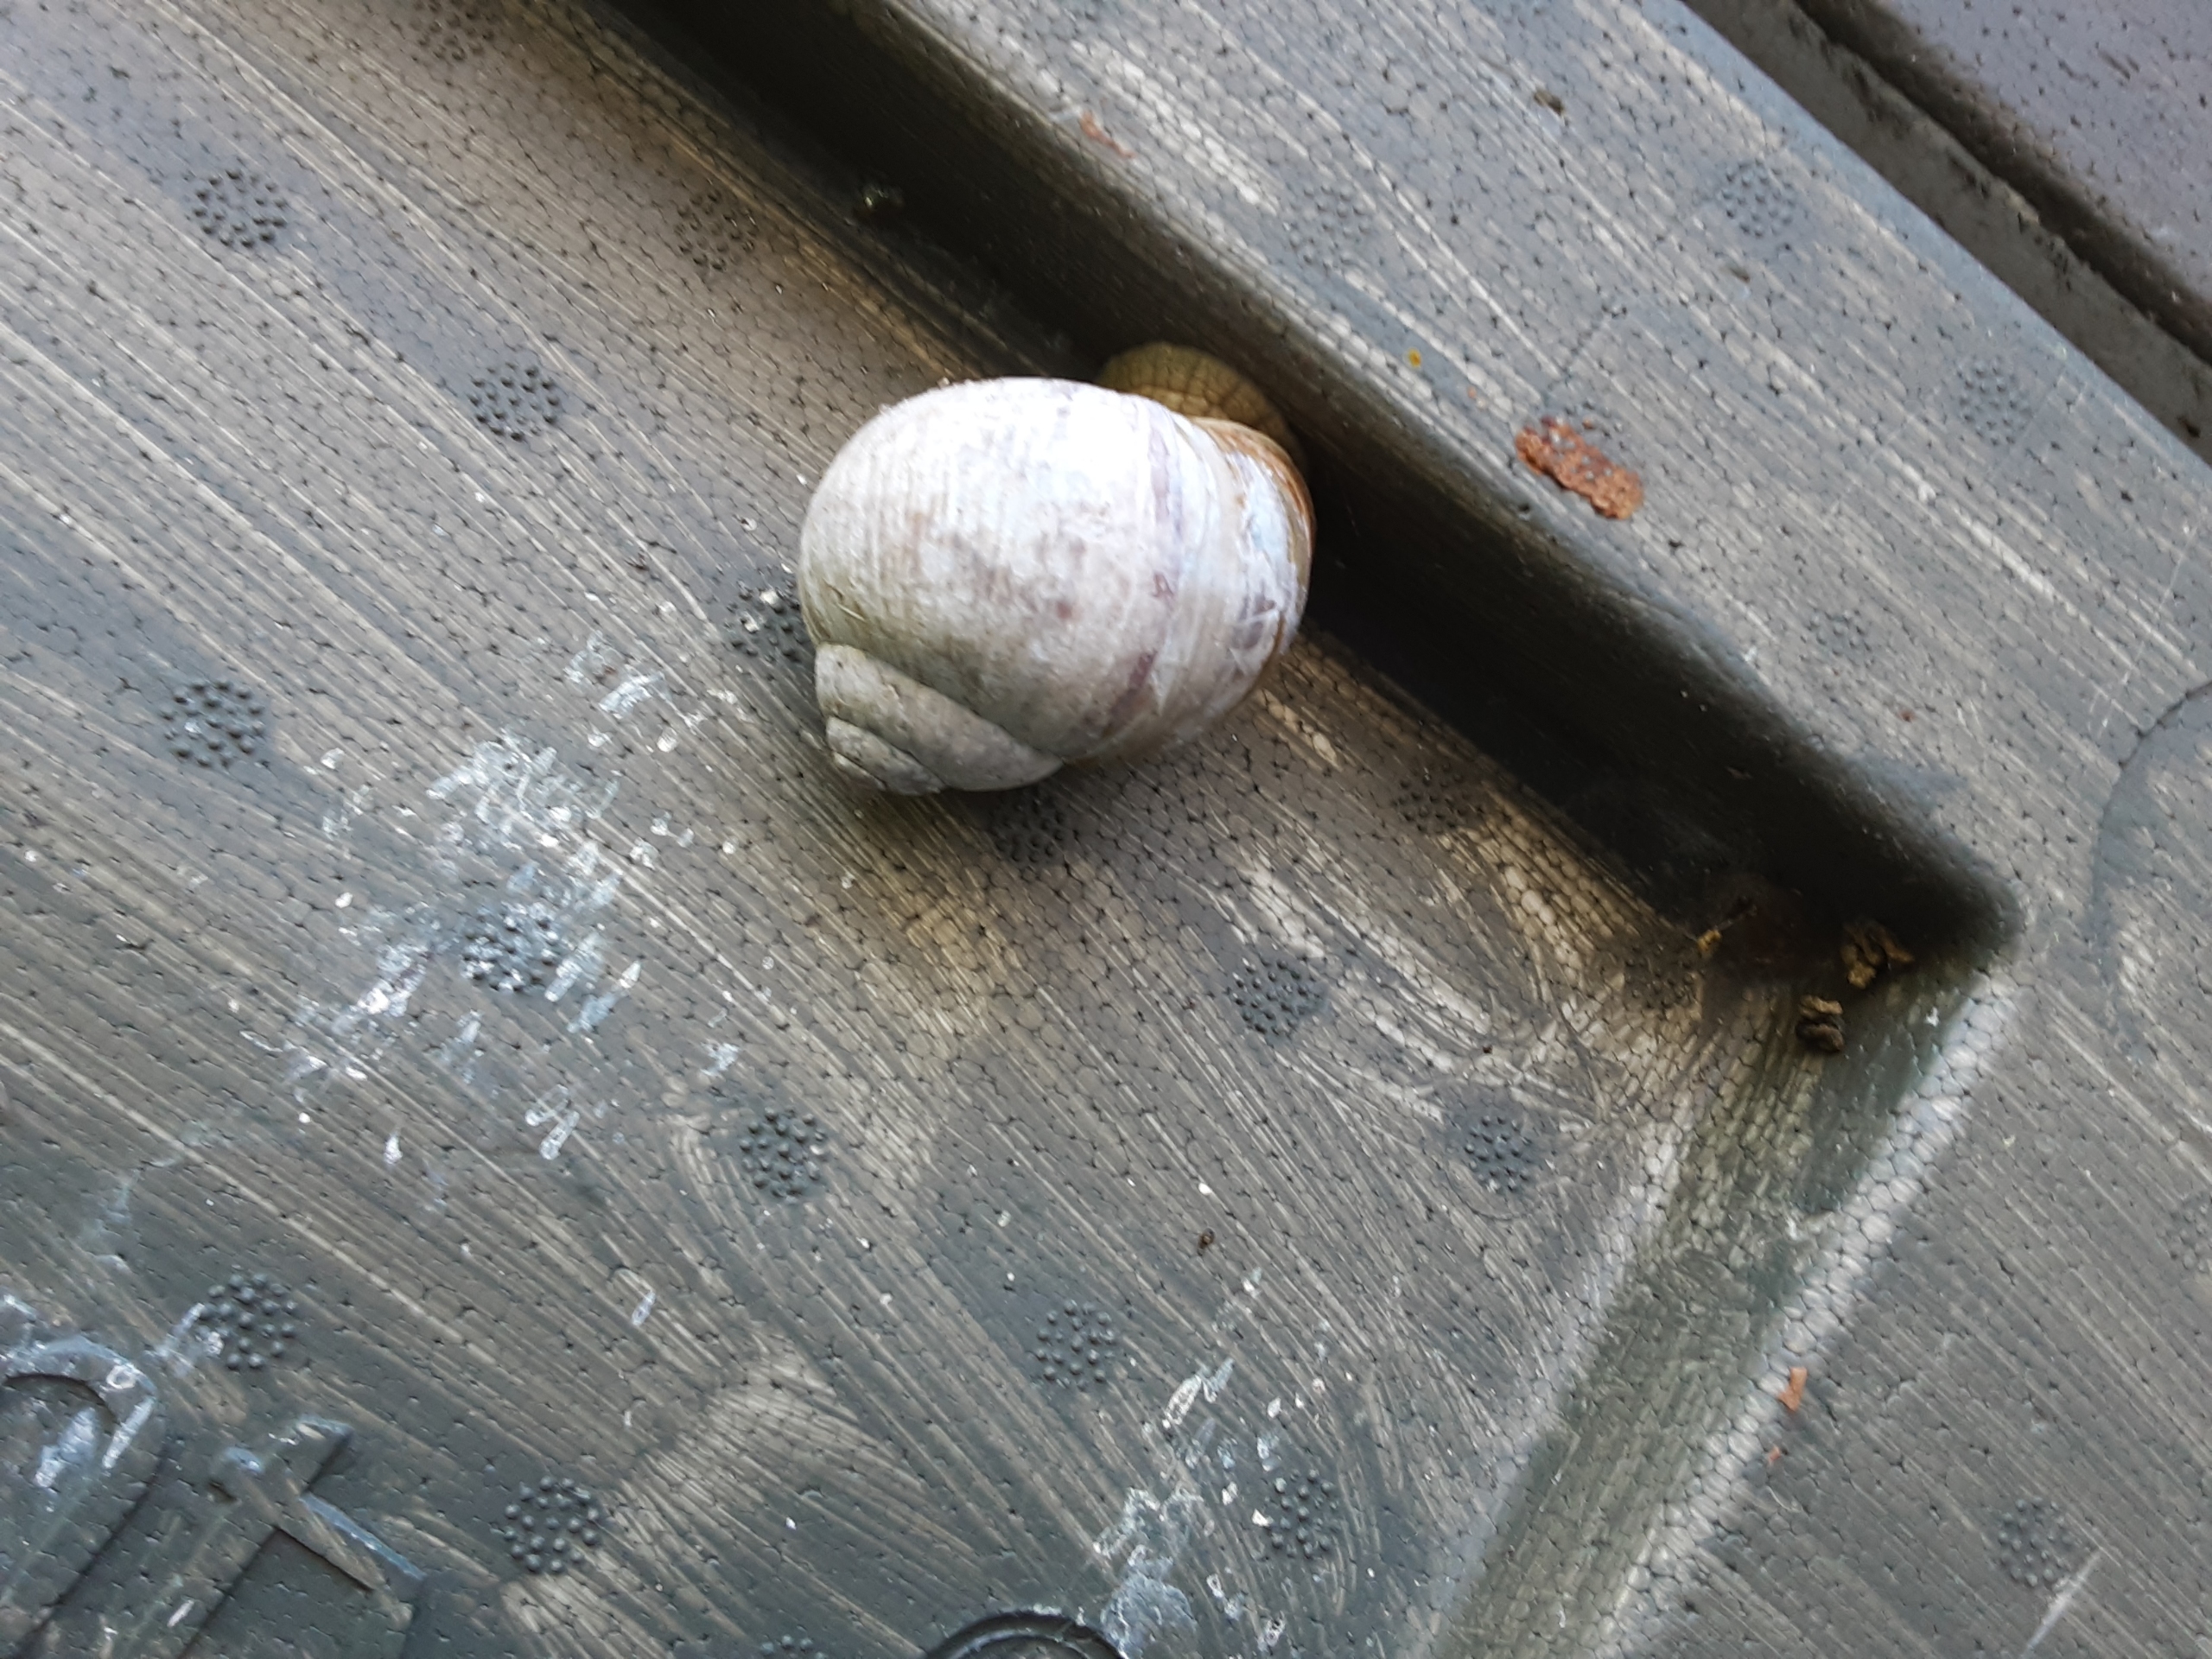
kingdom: Animalia
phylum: Mollusca
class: Gastropoda
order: Stylommatophora
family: Helicidae
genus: Helix
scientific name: Helix pomatia
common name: Vinbjergsnegl
